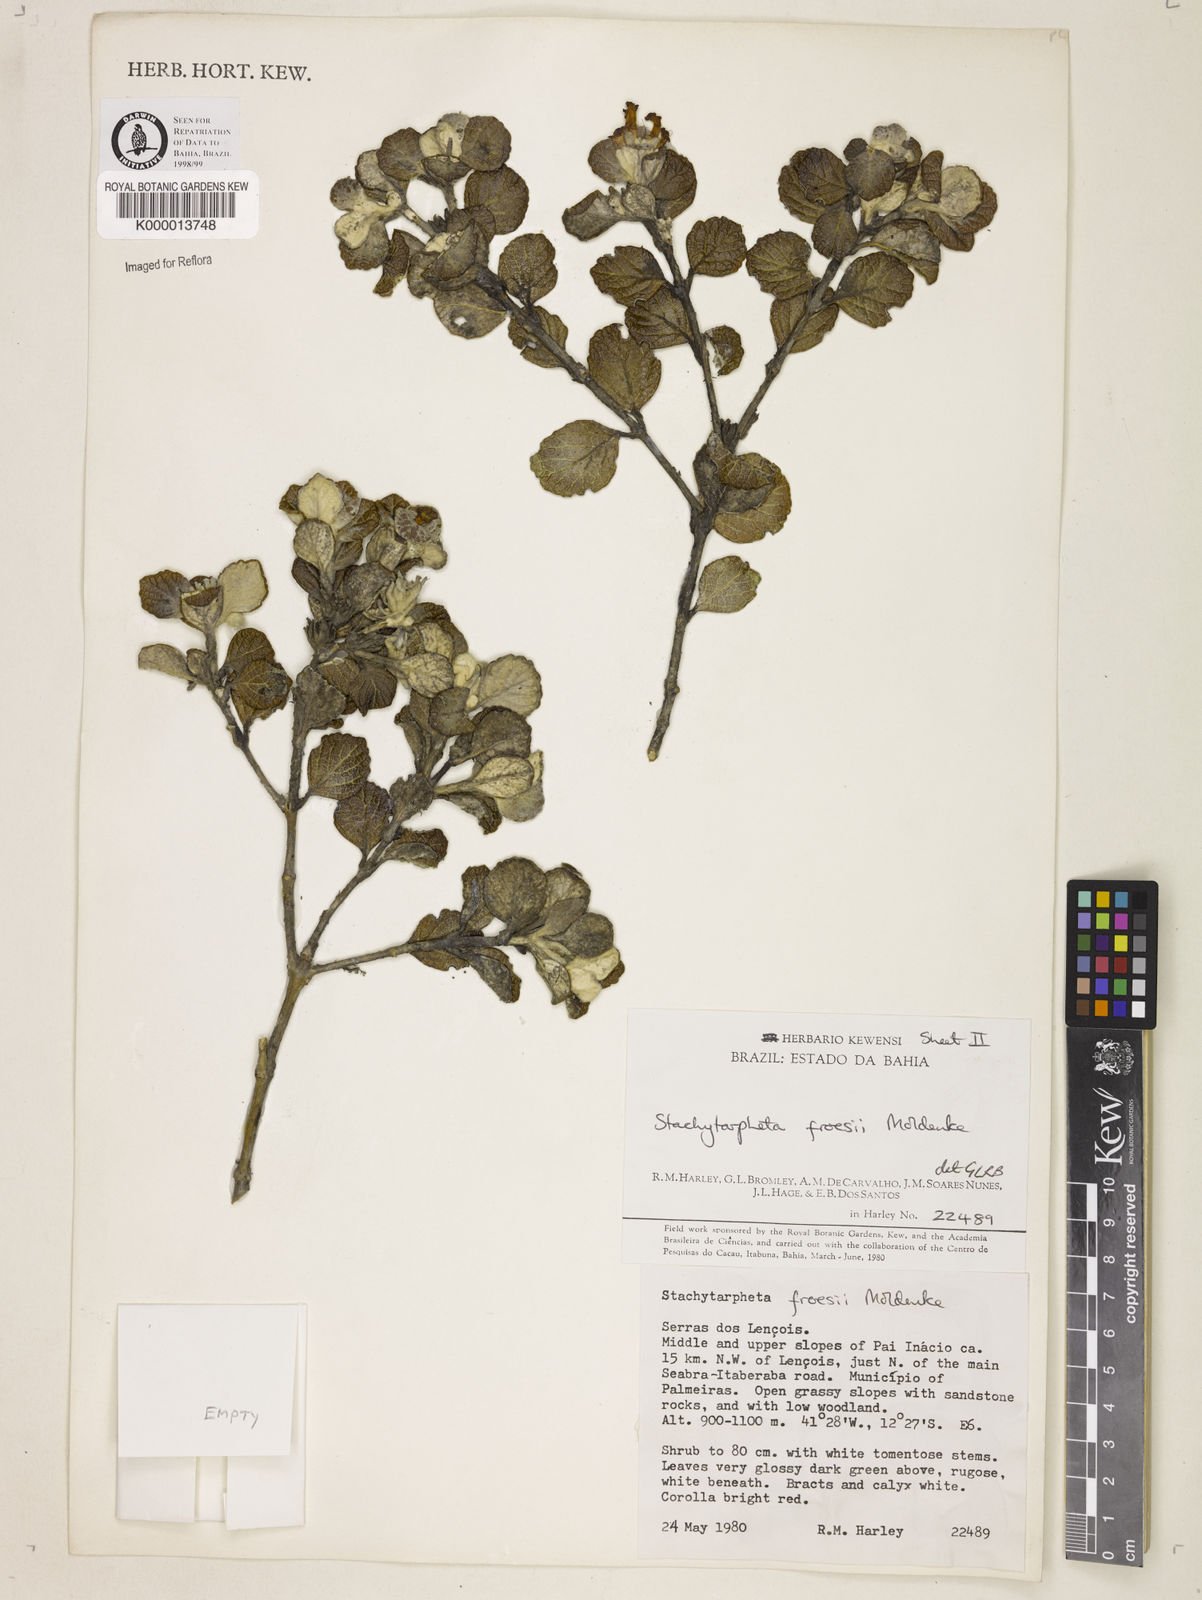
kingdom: Plantae
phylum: Tracheophyta
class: Magnoliopsida
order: Lamiales
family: Verbenaceae
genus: Stachytarpheta
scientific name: Stachytarpheta froesii
